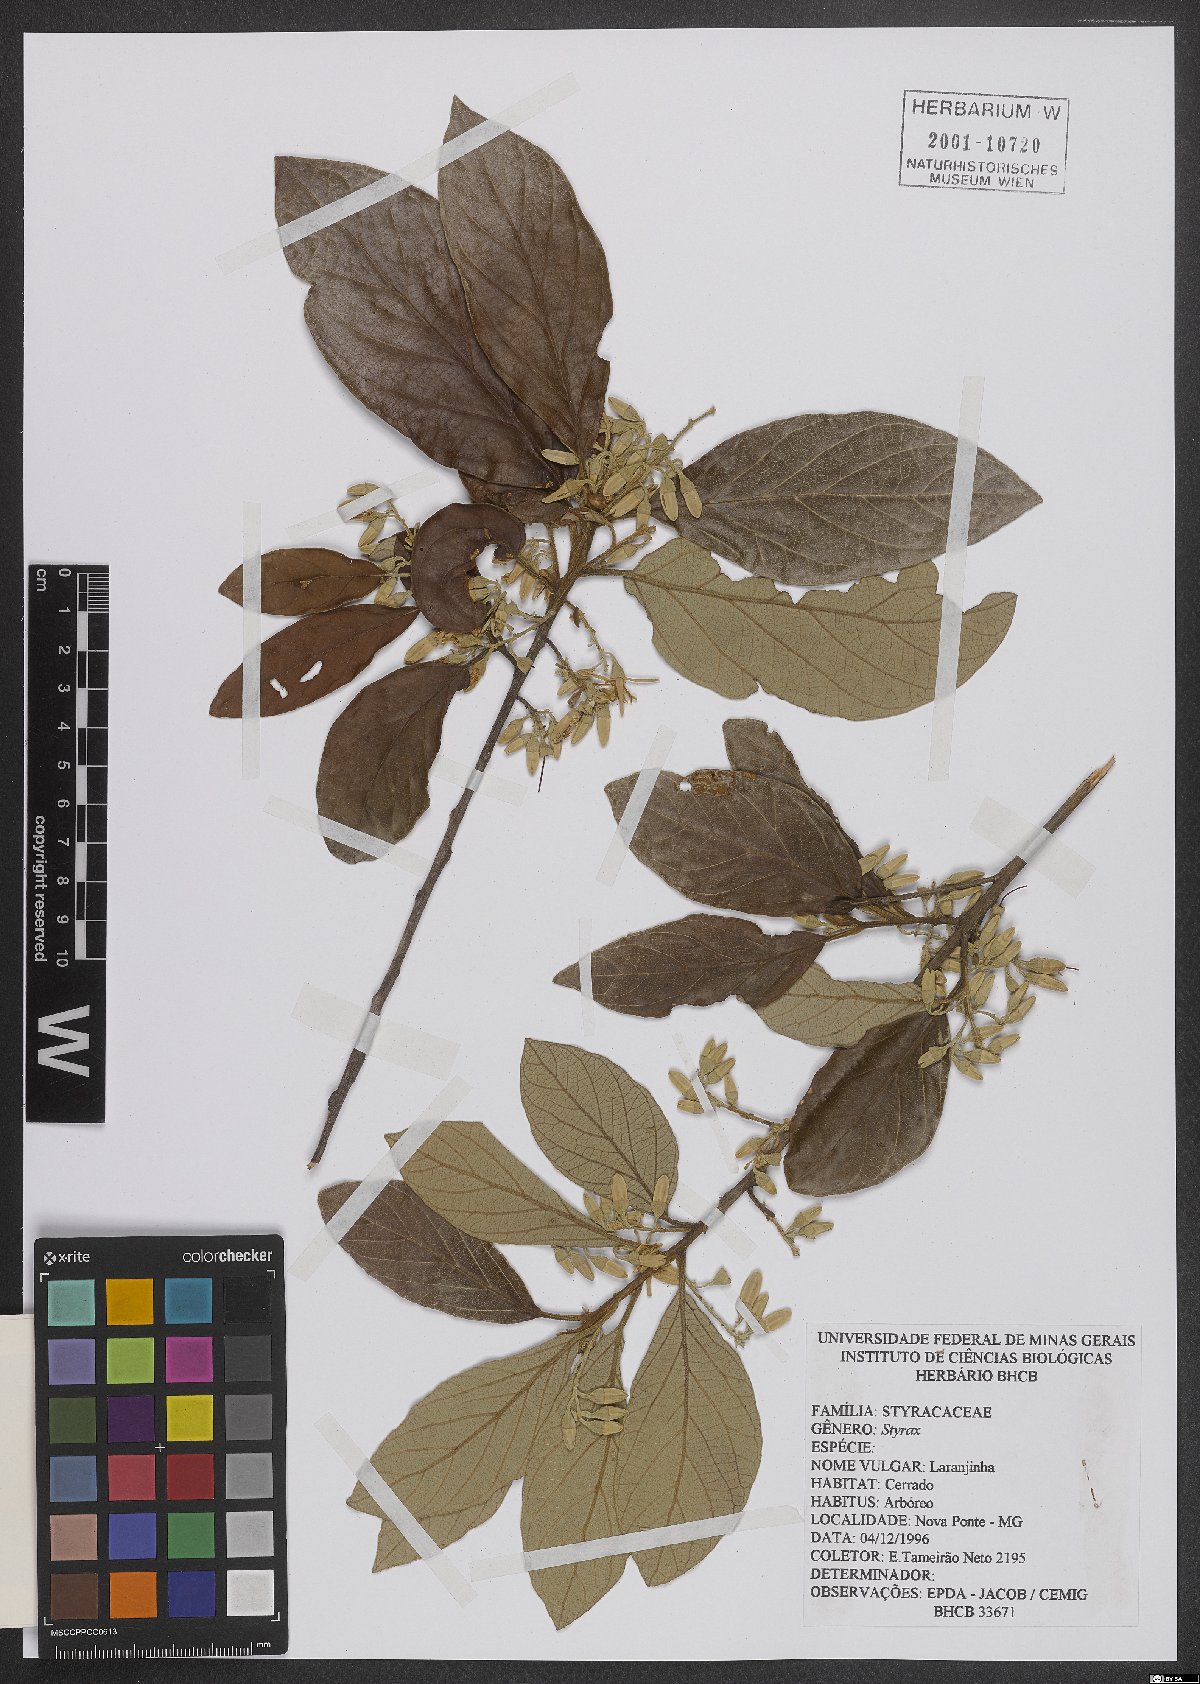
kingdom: Plantae
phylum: Tracheophyta
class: Magnoliopsida
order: Ericales
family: Styracaceae
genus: Styrax
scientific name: Styrax
